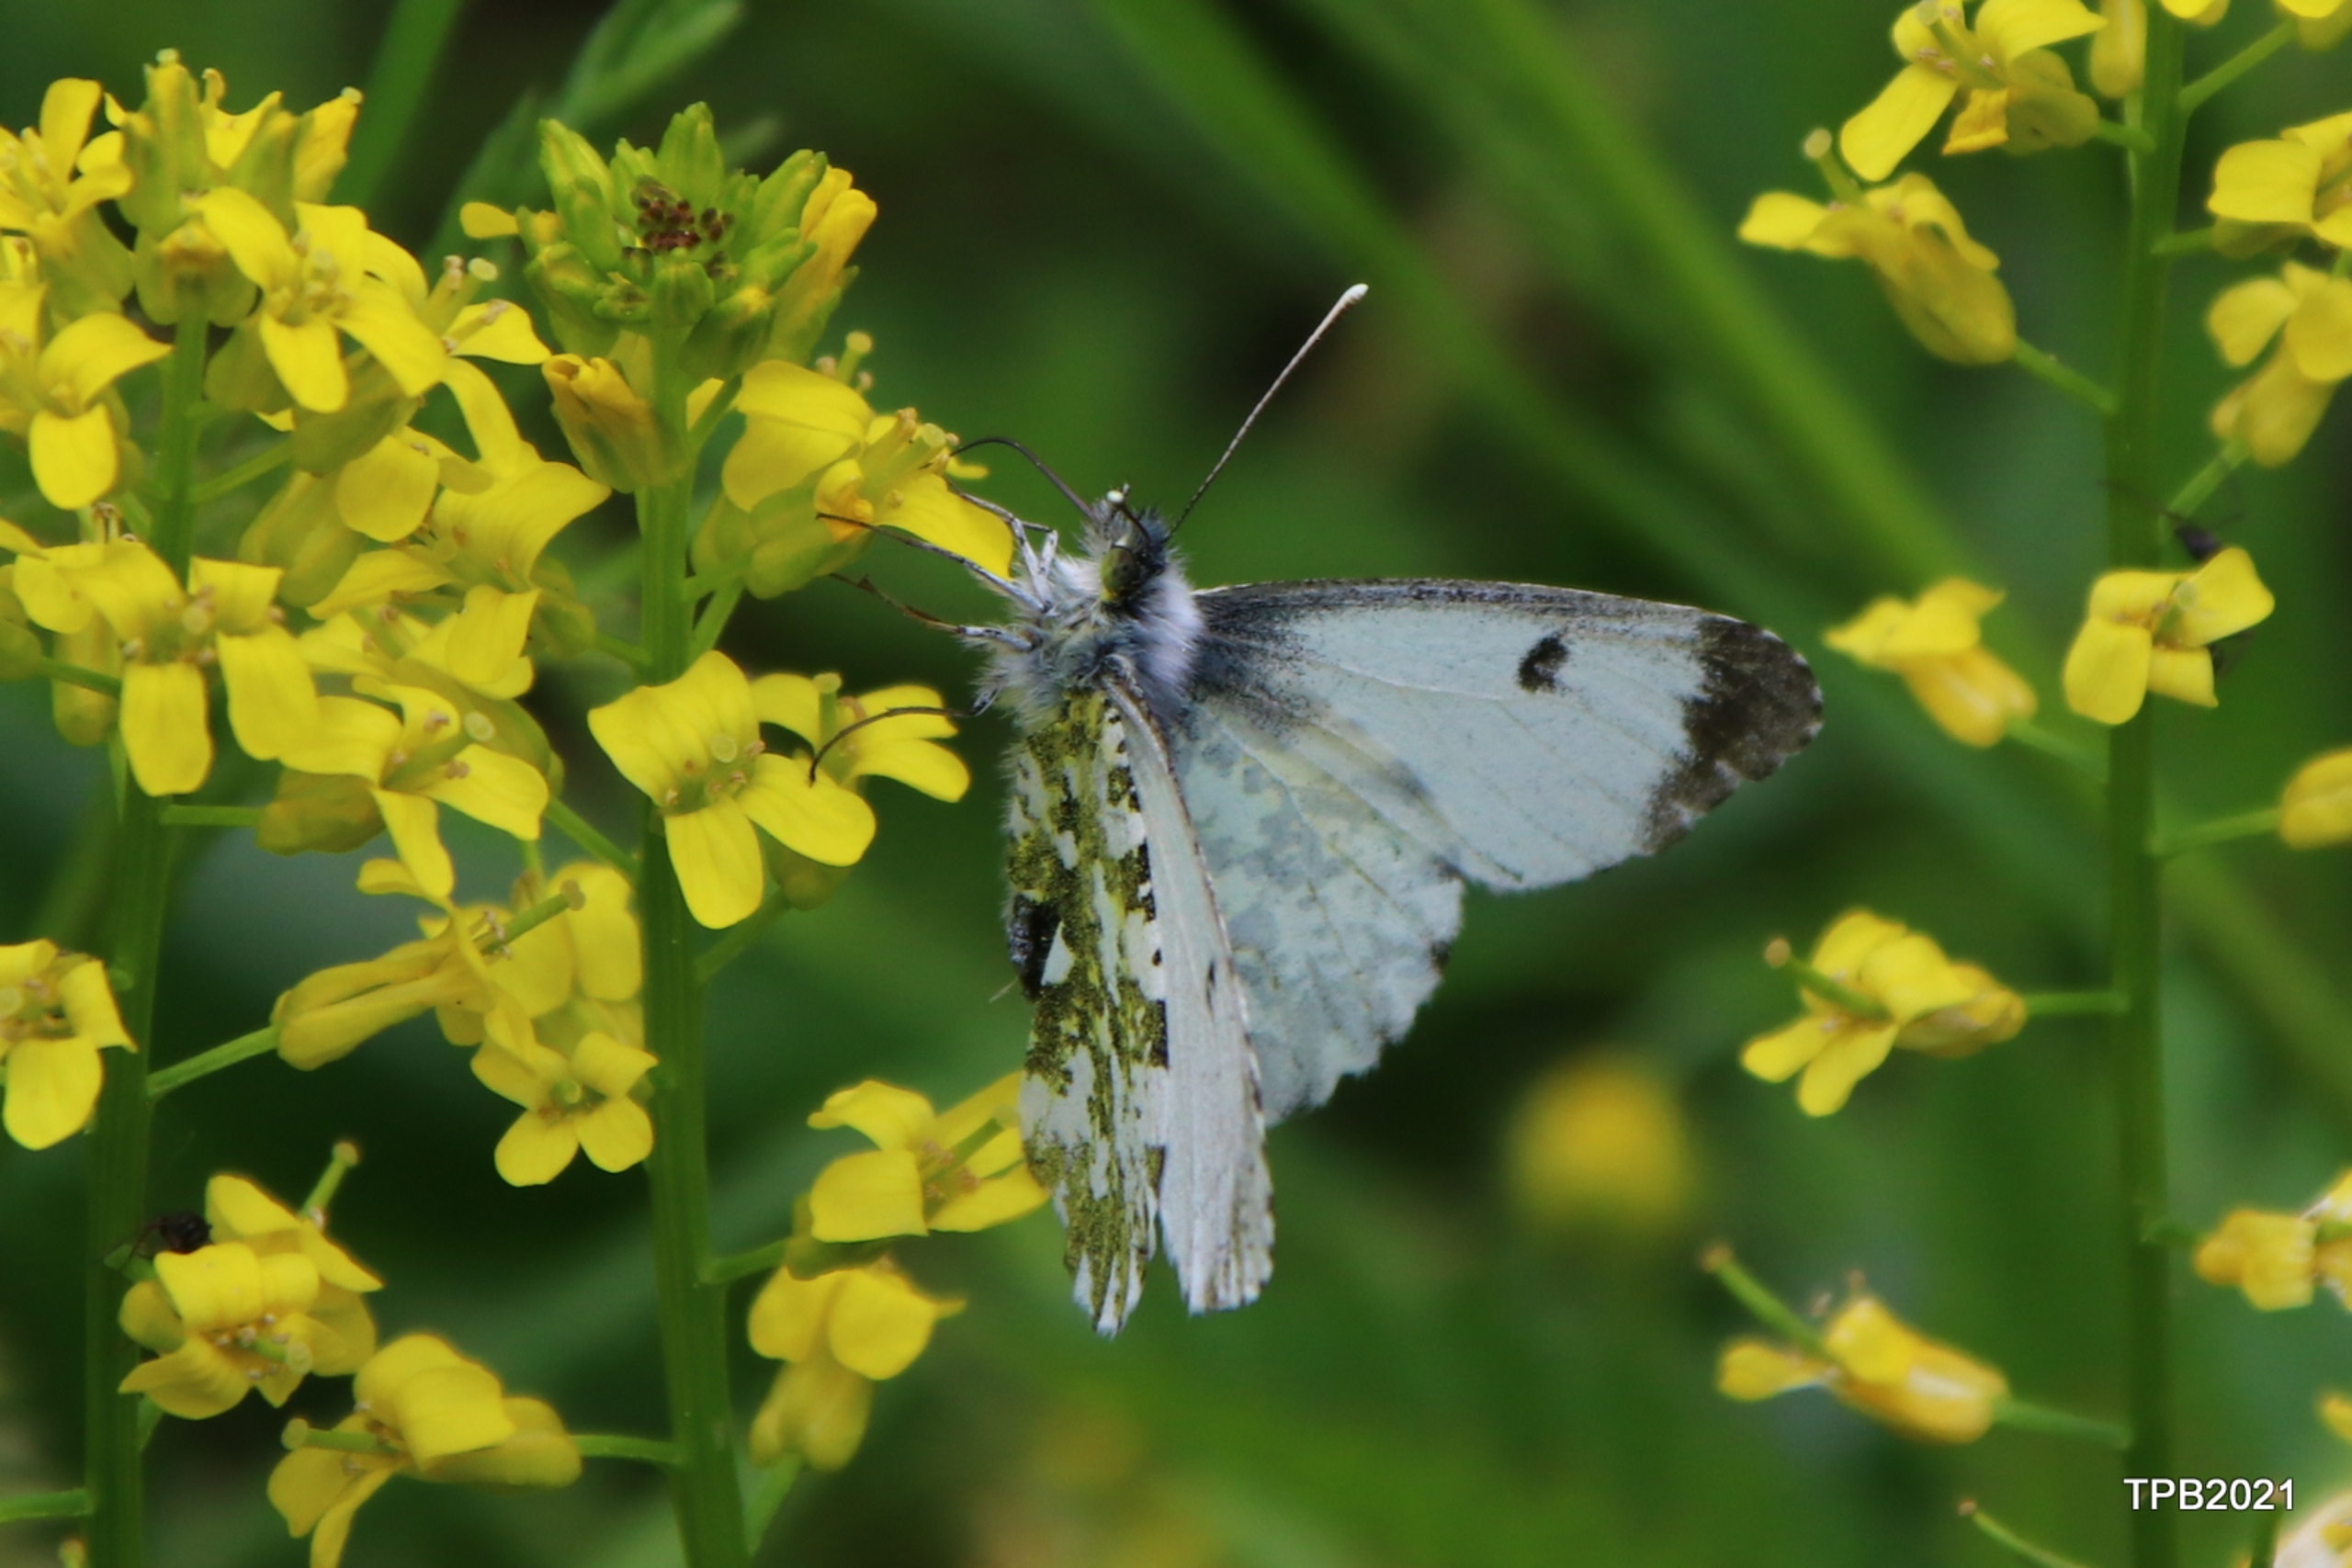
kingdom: Animalia
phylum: Arthropoda
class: Insecta
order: Lepidoptera
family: Pieridae
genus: Anthocharis
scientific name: Anthocharis cardamines
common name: Aurora
